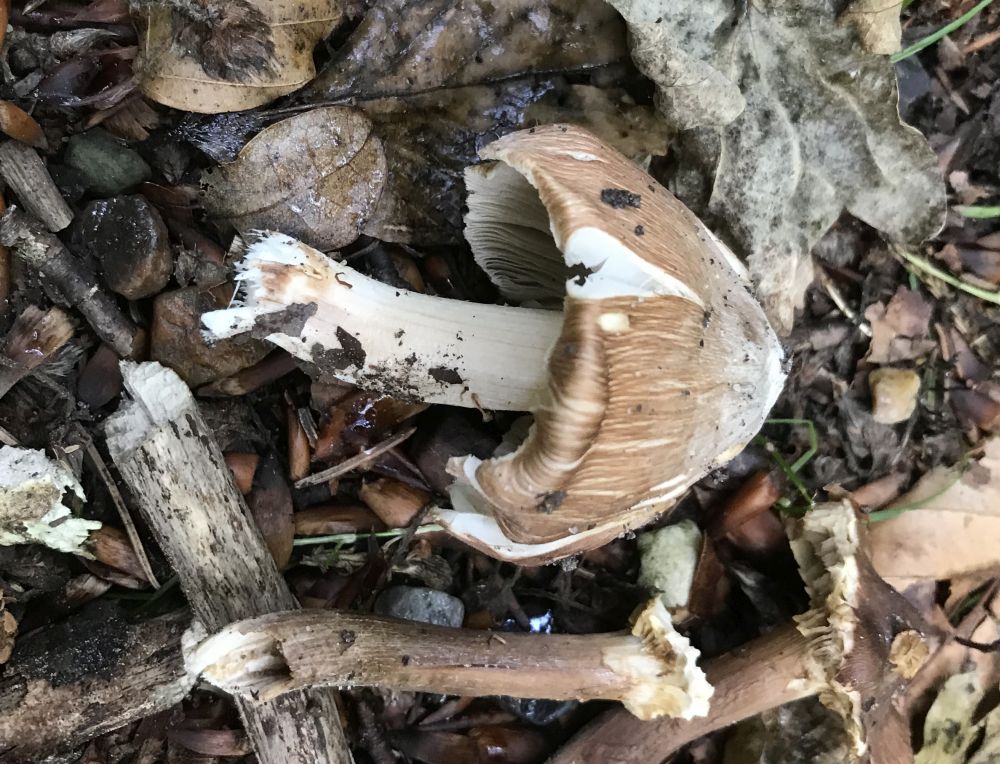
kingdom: Fungi
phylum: Basidiomycota
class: Agaricomycetes
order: Agaricales
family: Inocybaceae
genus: Inosperma
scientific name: Inosperma
